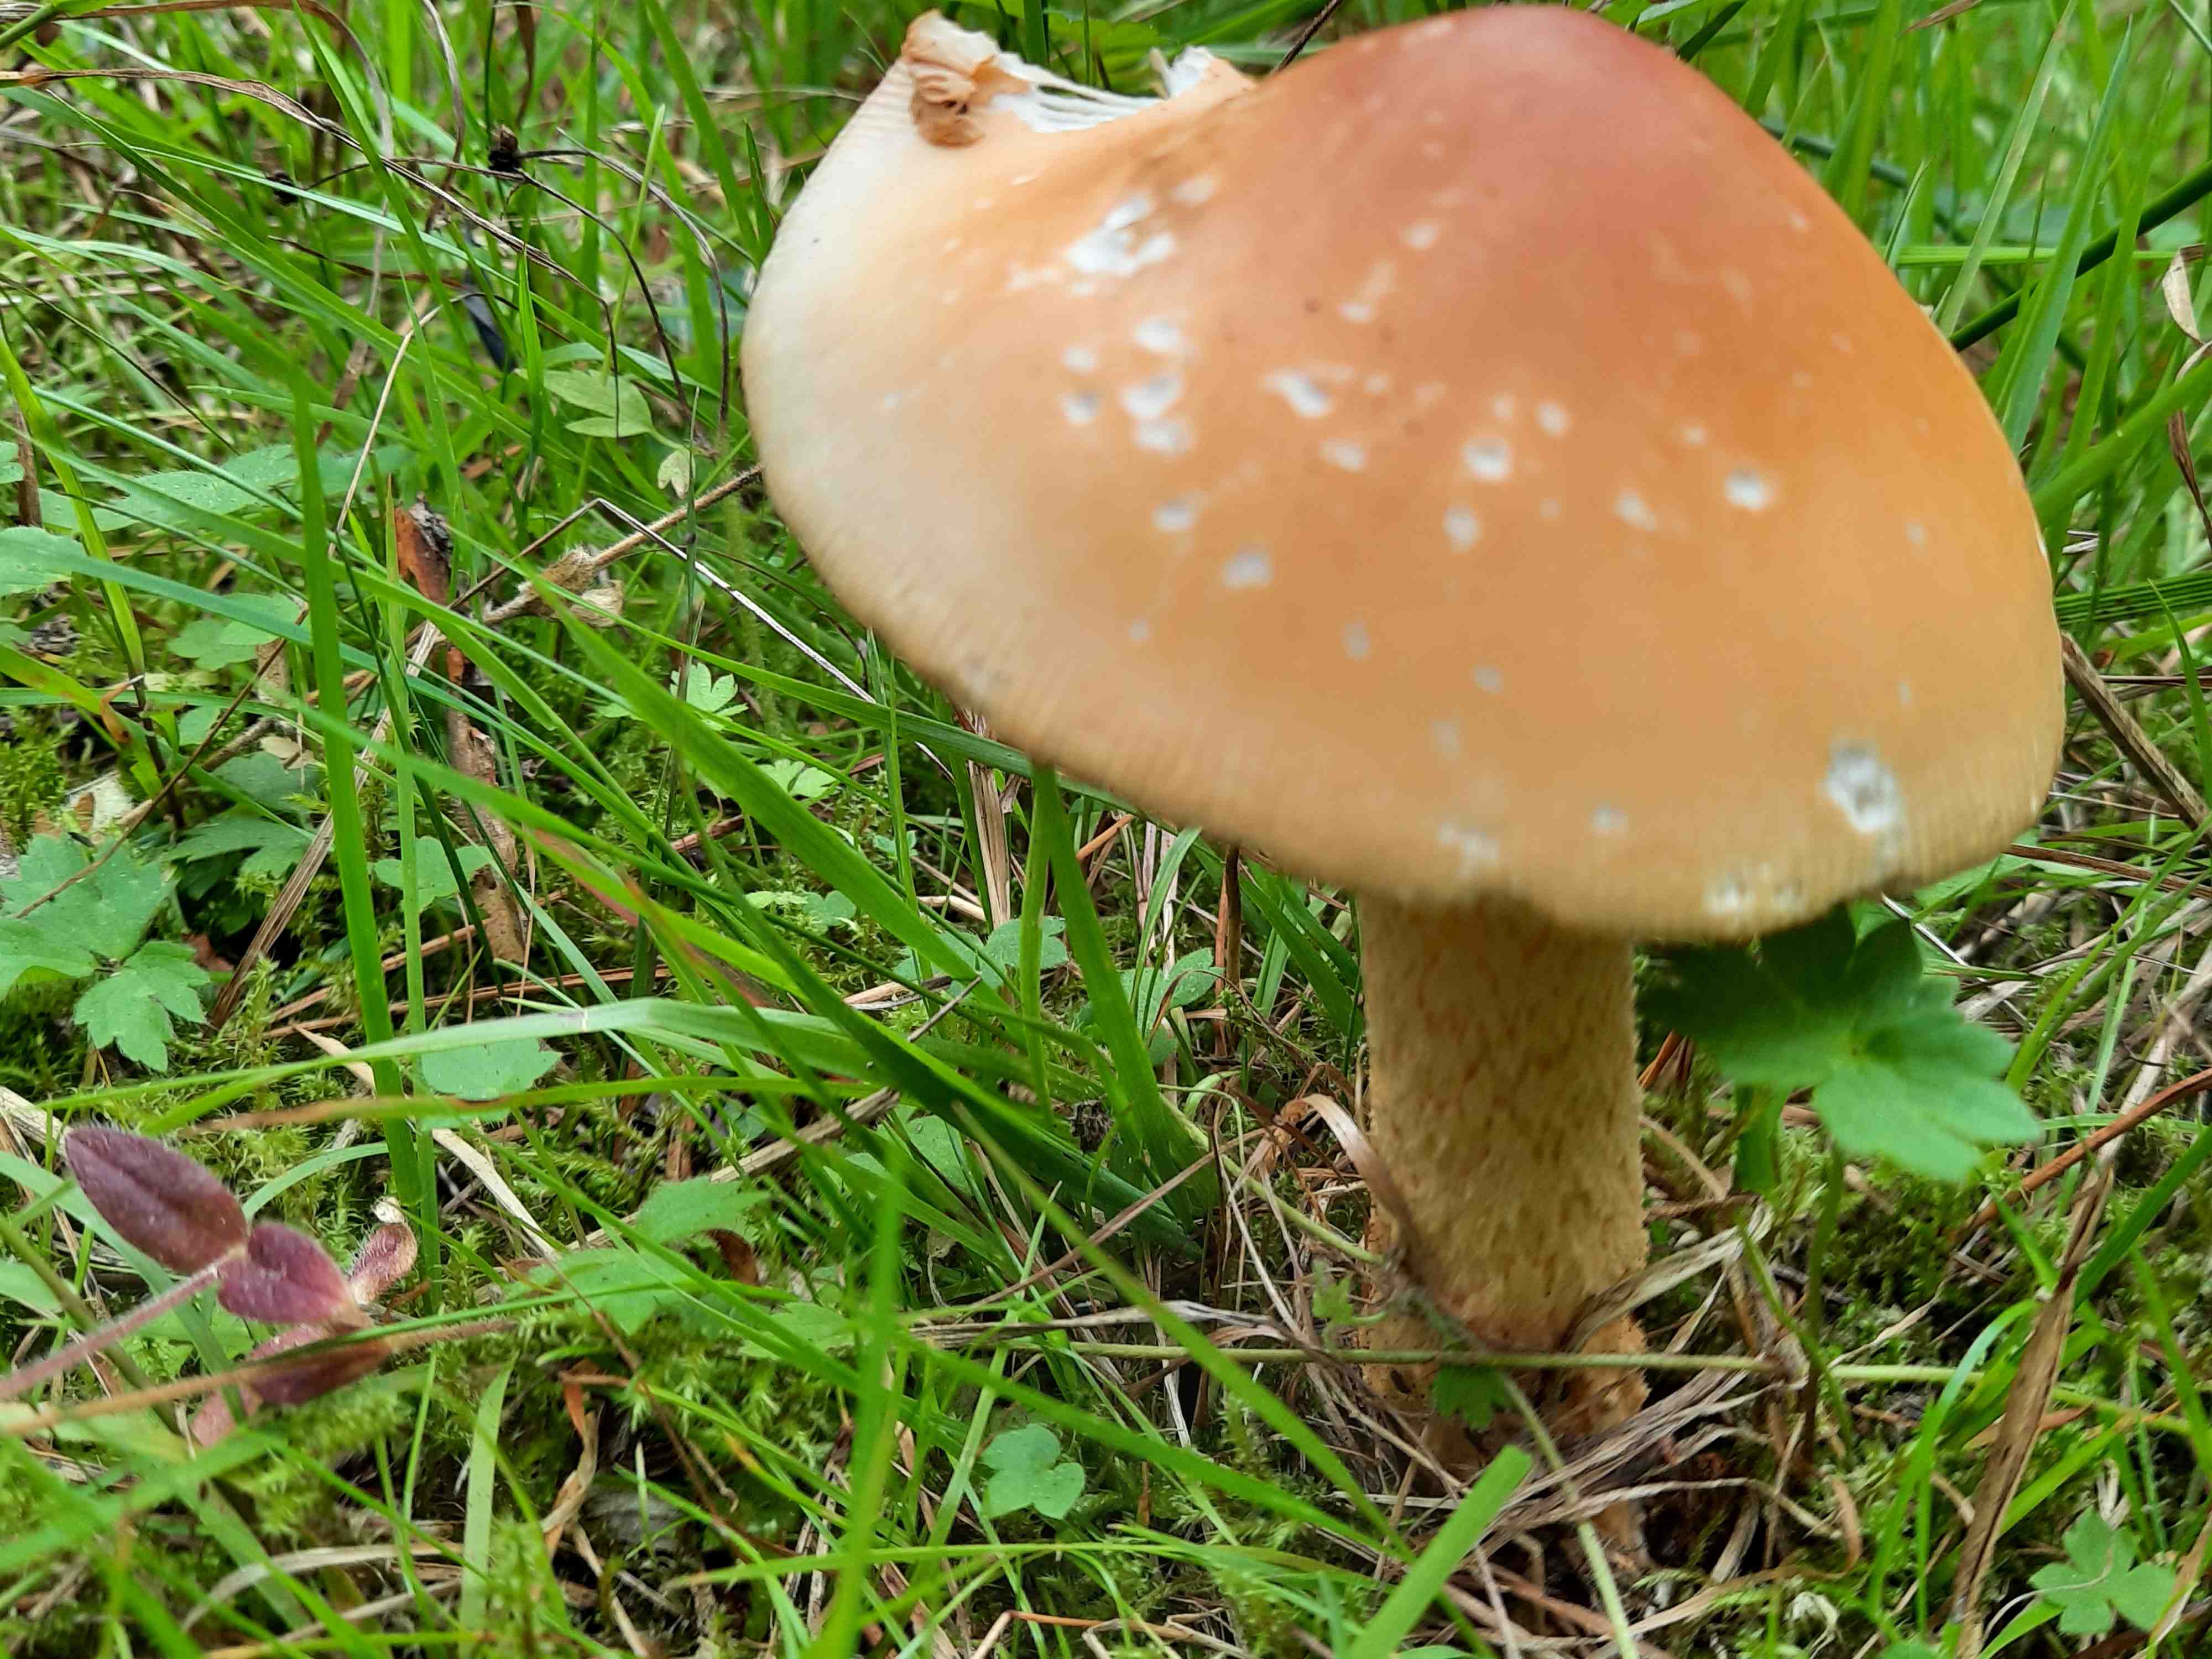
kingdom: Fungi
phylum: Basidiomycota
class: Agaricomycetes
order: Agaricales
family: Amanitaceae
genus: Amanita
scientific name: Amanita crocea
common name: gylden kam-fluesvamp
